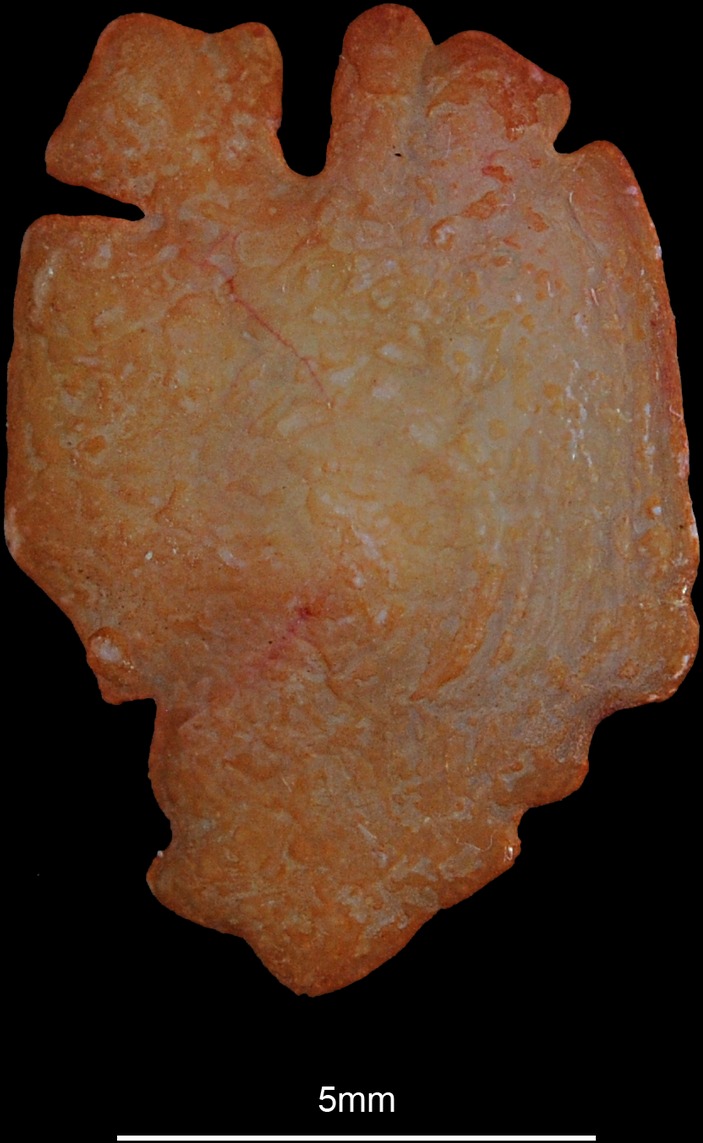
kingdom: Animalia
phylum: Chordata
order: Pleuronectiformes
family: Pleuronectidae
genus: Hippoglossus
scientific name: Hippoglossus hippoglossus
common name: Atlantic halibut
